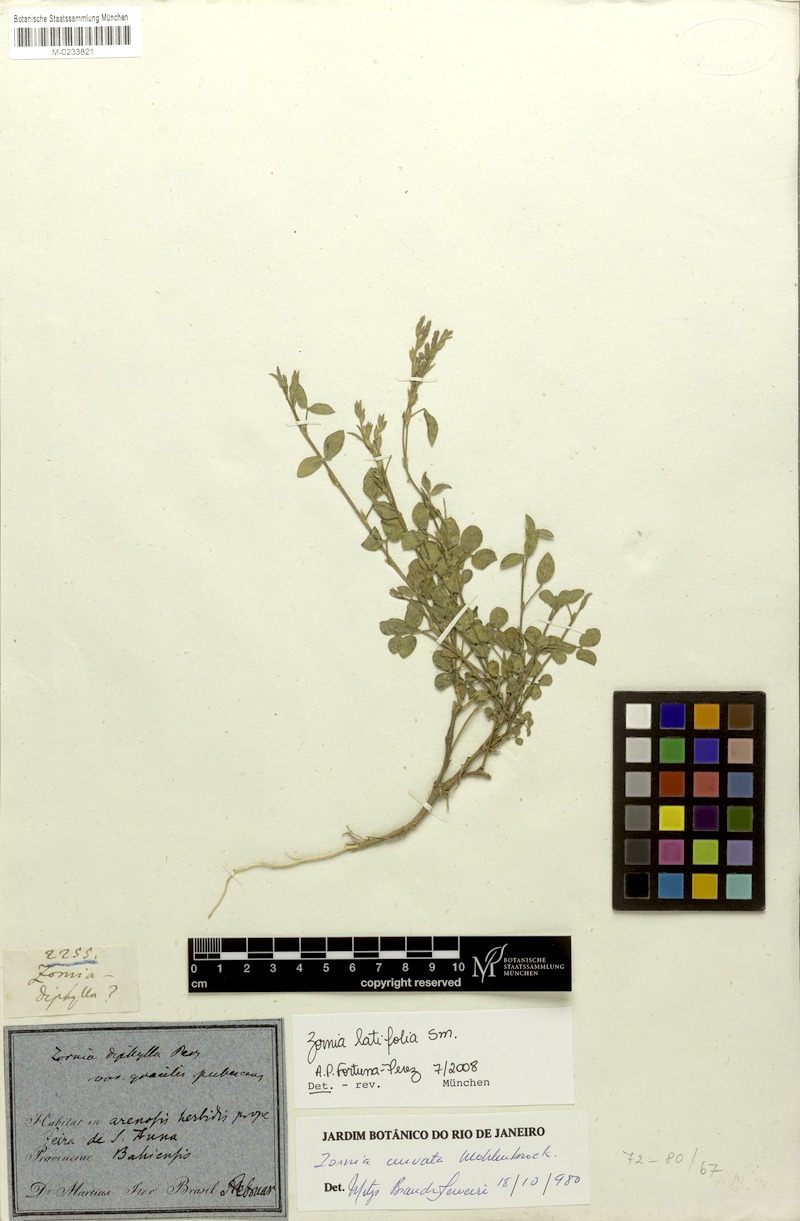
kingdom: Plantae
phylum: Tracheophyta
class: Magnoliopsida
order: Fabales
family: Fabaceae
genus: Zornia
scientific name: Zornia latifolia
